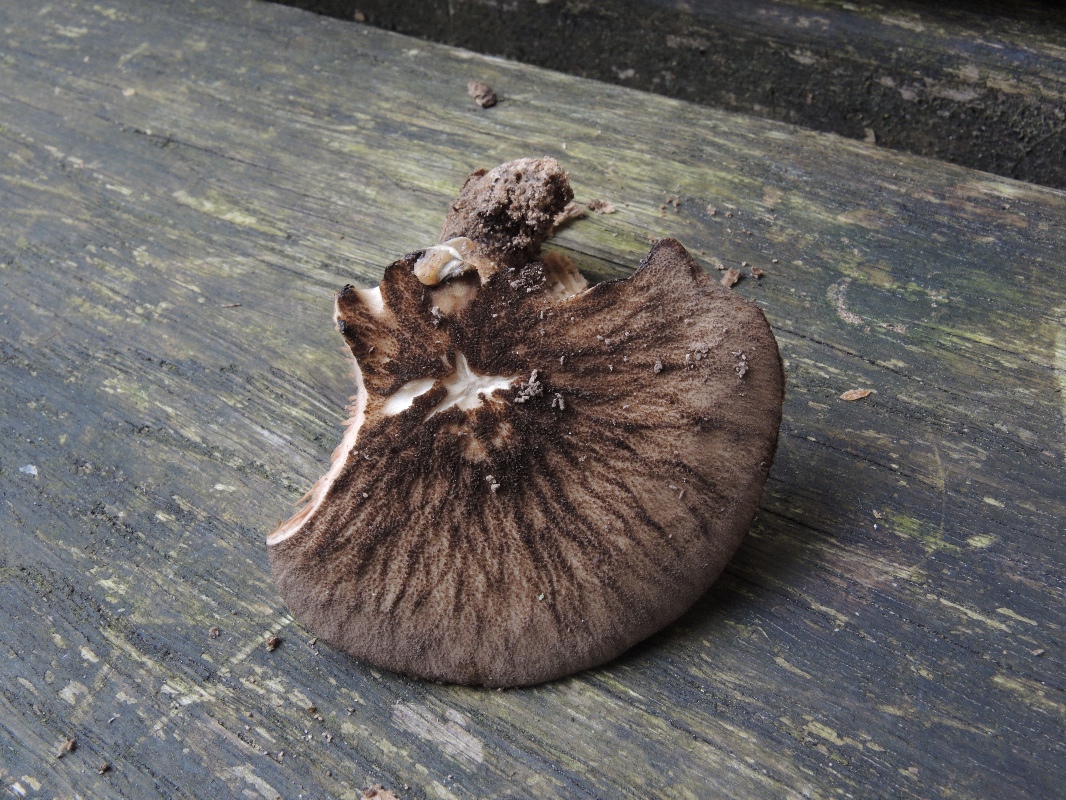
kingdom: Fungi
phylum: Basidiomycota
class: Agaricomycetes
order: Agaricales
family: Pluteaceae
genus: Pluteus
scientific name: Pluteus umbrosus
